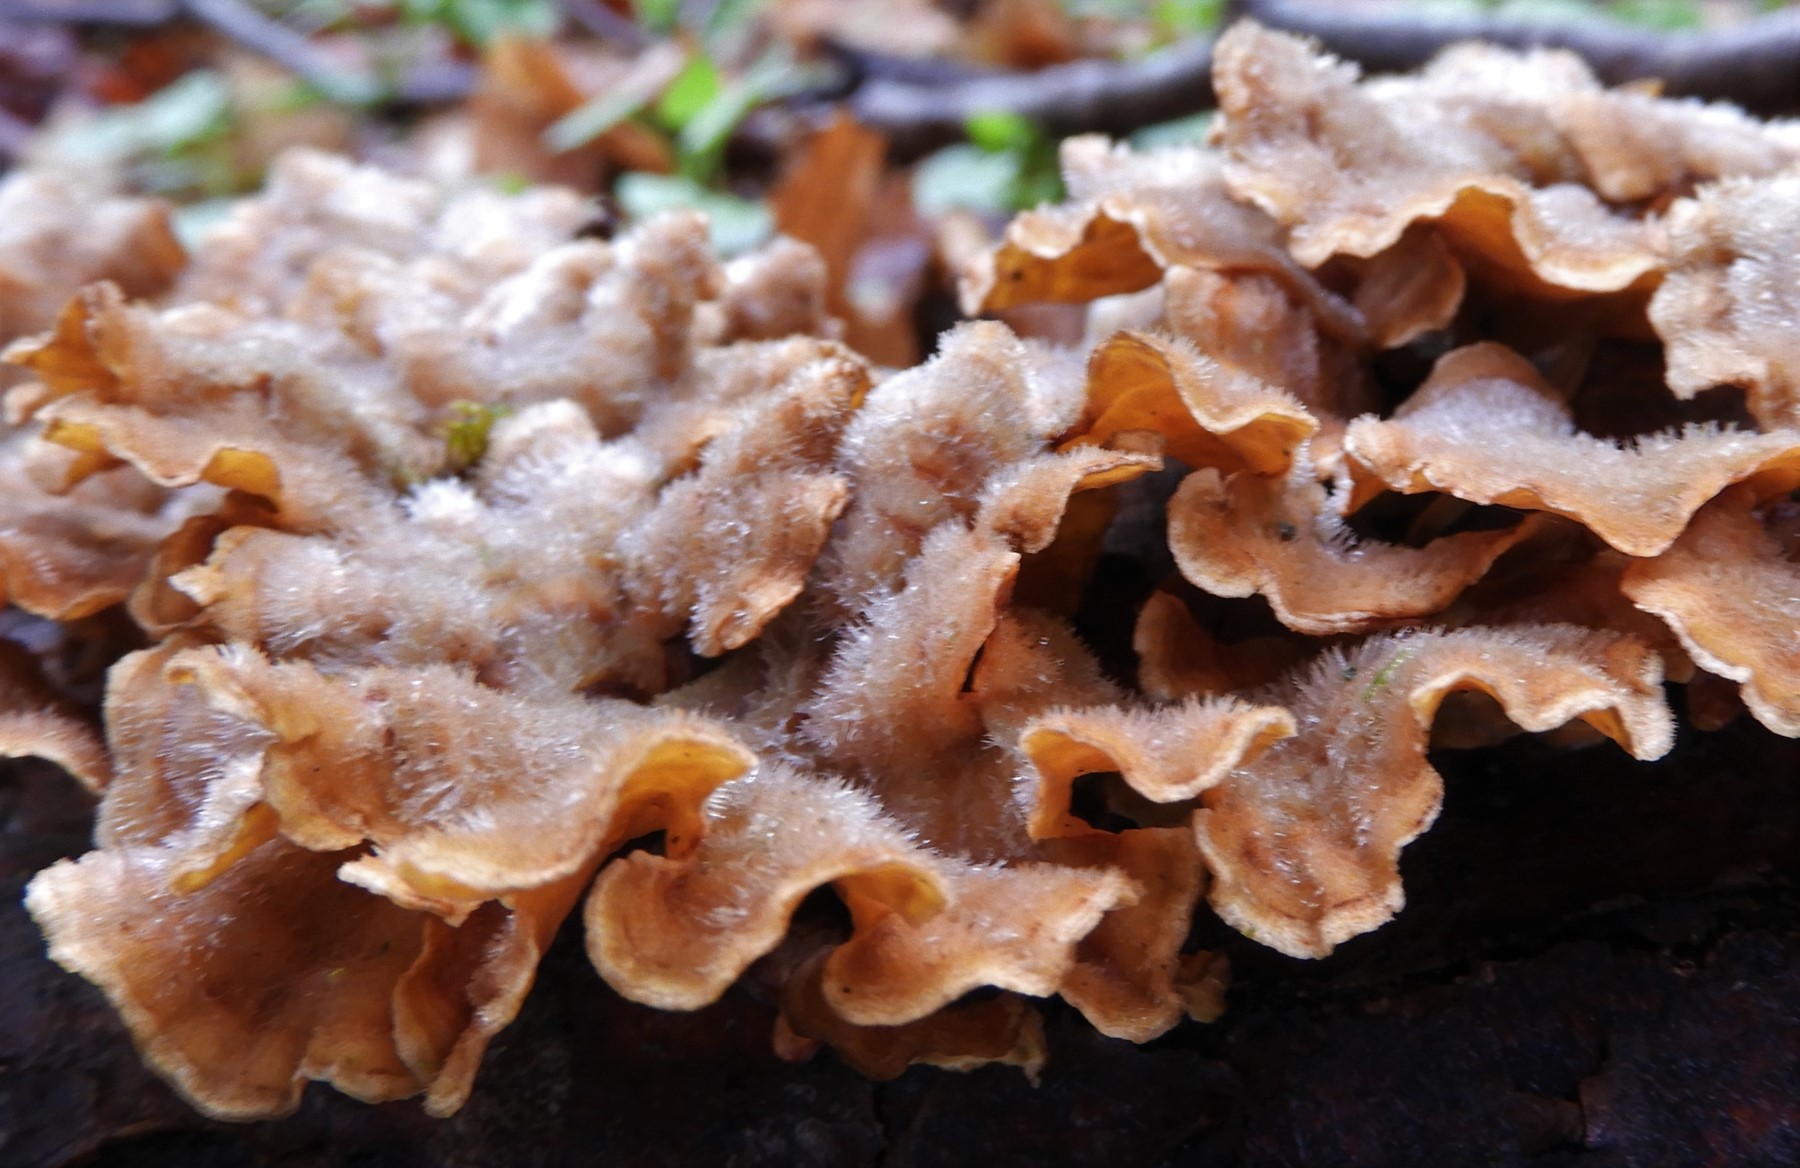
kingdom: Fungi
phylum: Basidiomycota
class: Agaricomycetes
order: Russulales
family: Stereaceae
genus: Stereum
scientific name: Stereum hirsutum
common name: håret lædersvamp
